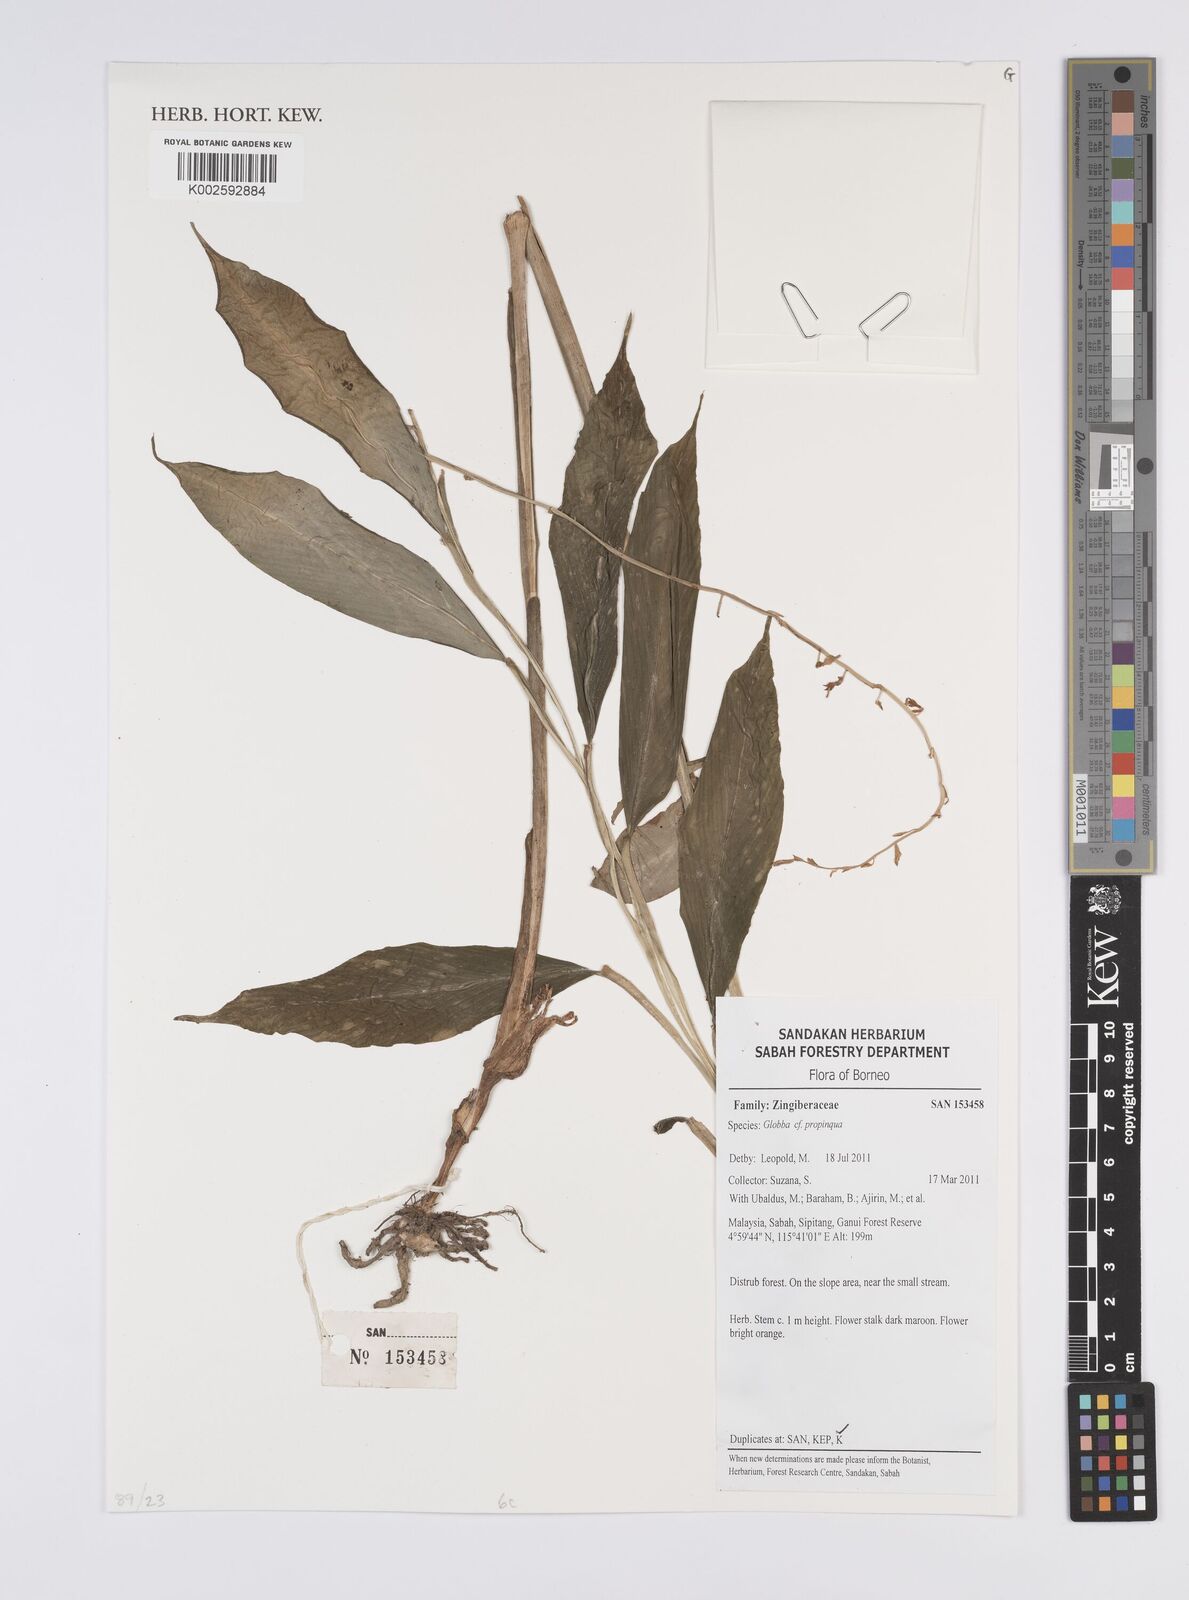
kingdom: Plantae
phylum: Tracheophyta
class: Liliopsida
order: Zingiberales
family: Zingiberaceae
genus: Globba
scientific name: Globba propinqua
